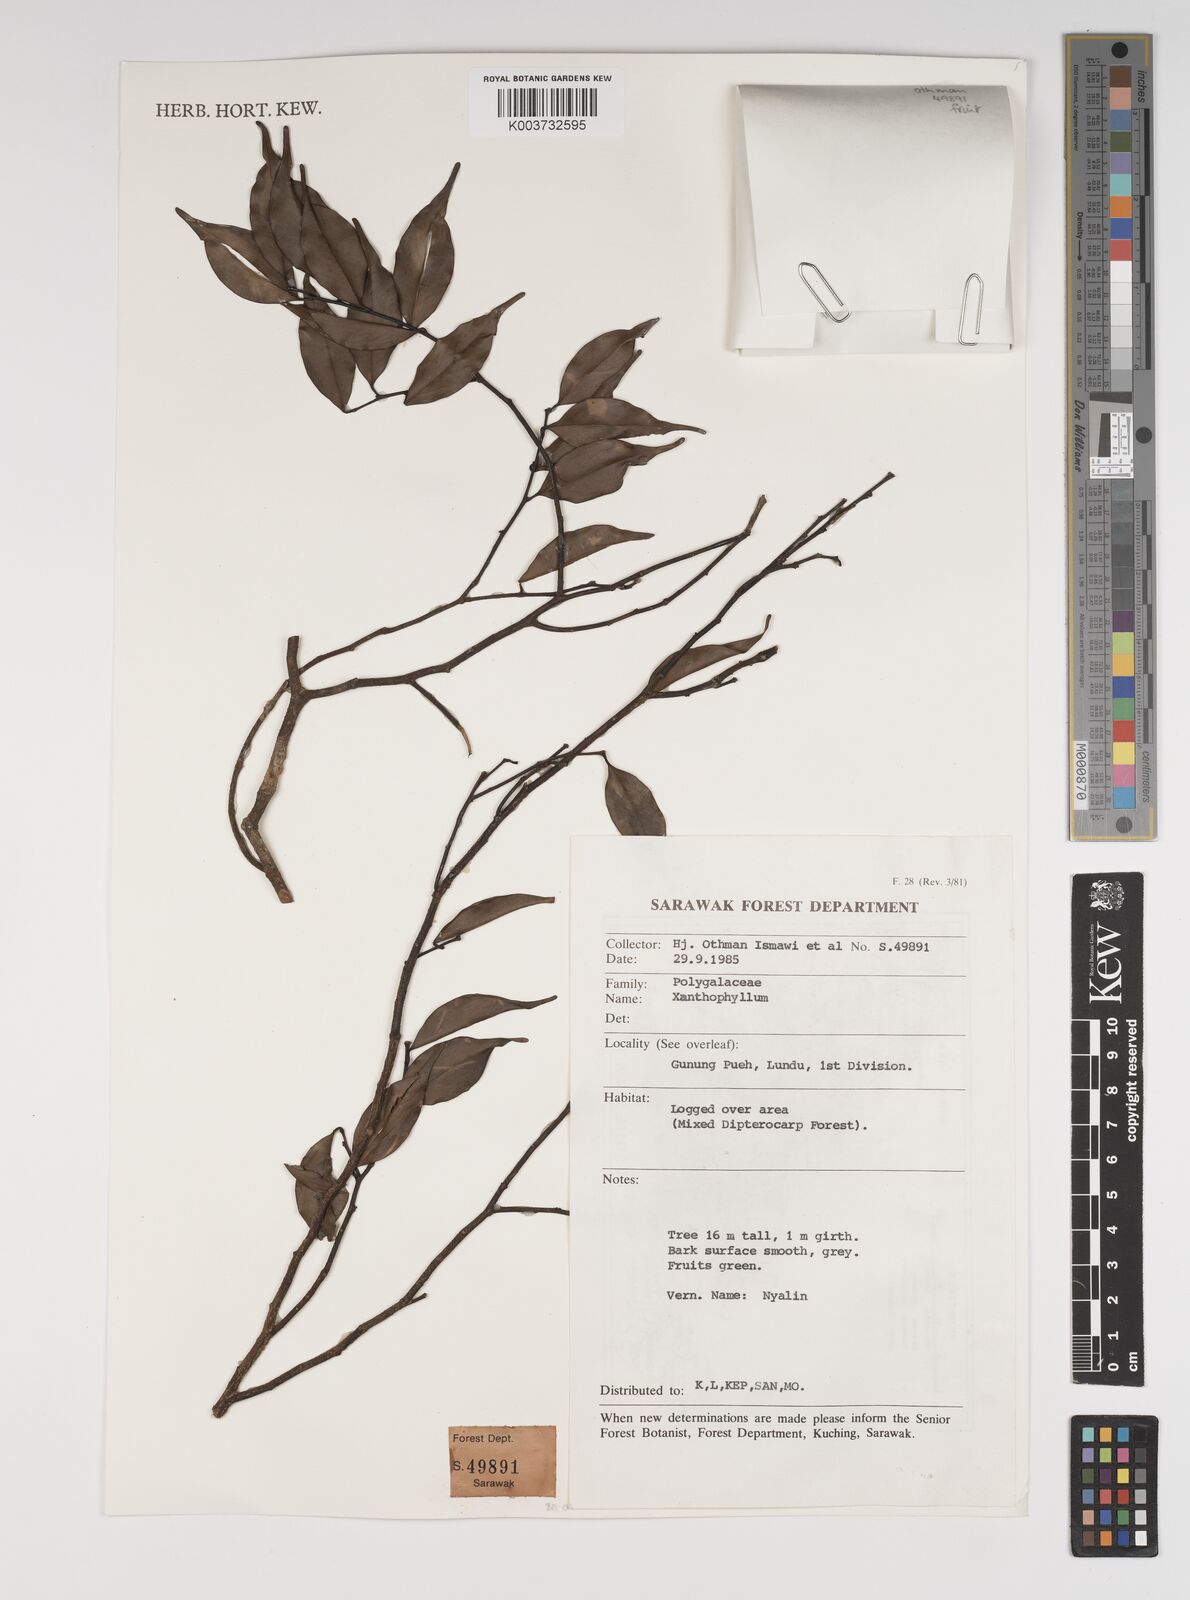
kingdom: Plantae
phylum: Tracheophyta
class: Magnoliopsida
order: Fabales
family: Polygalaceae
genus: Xanthophyllum
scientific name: Xanthophyllum
